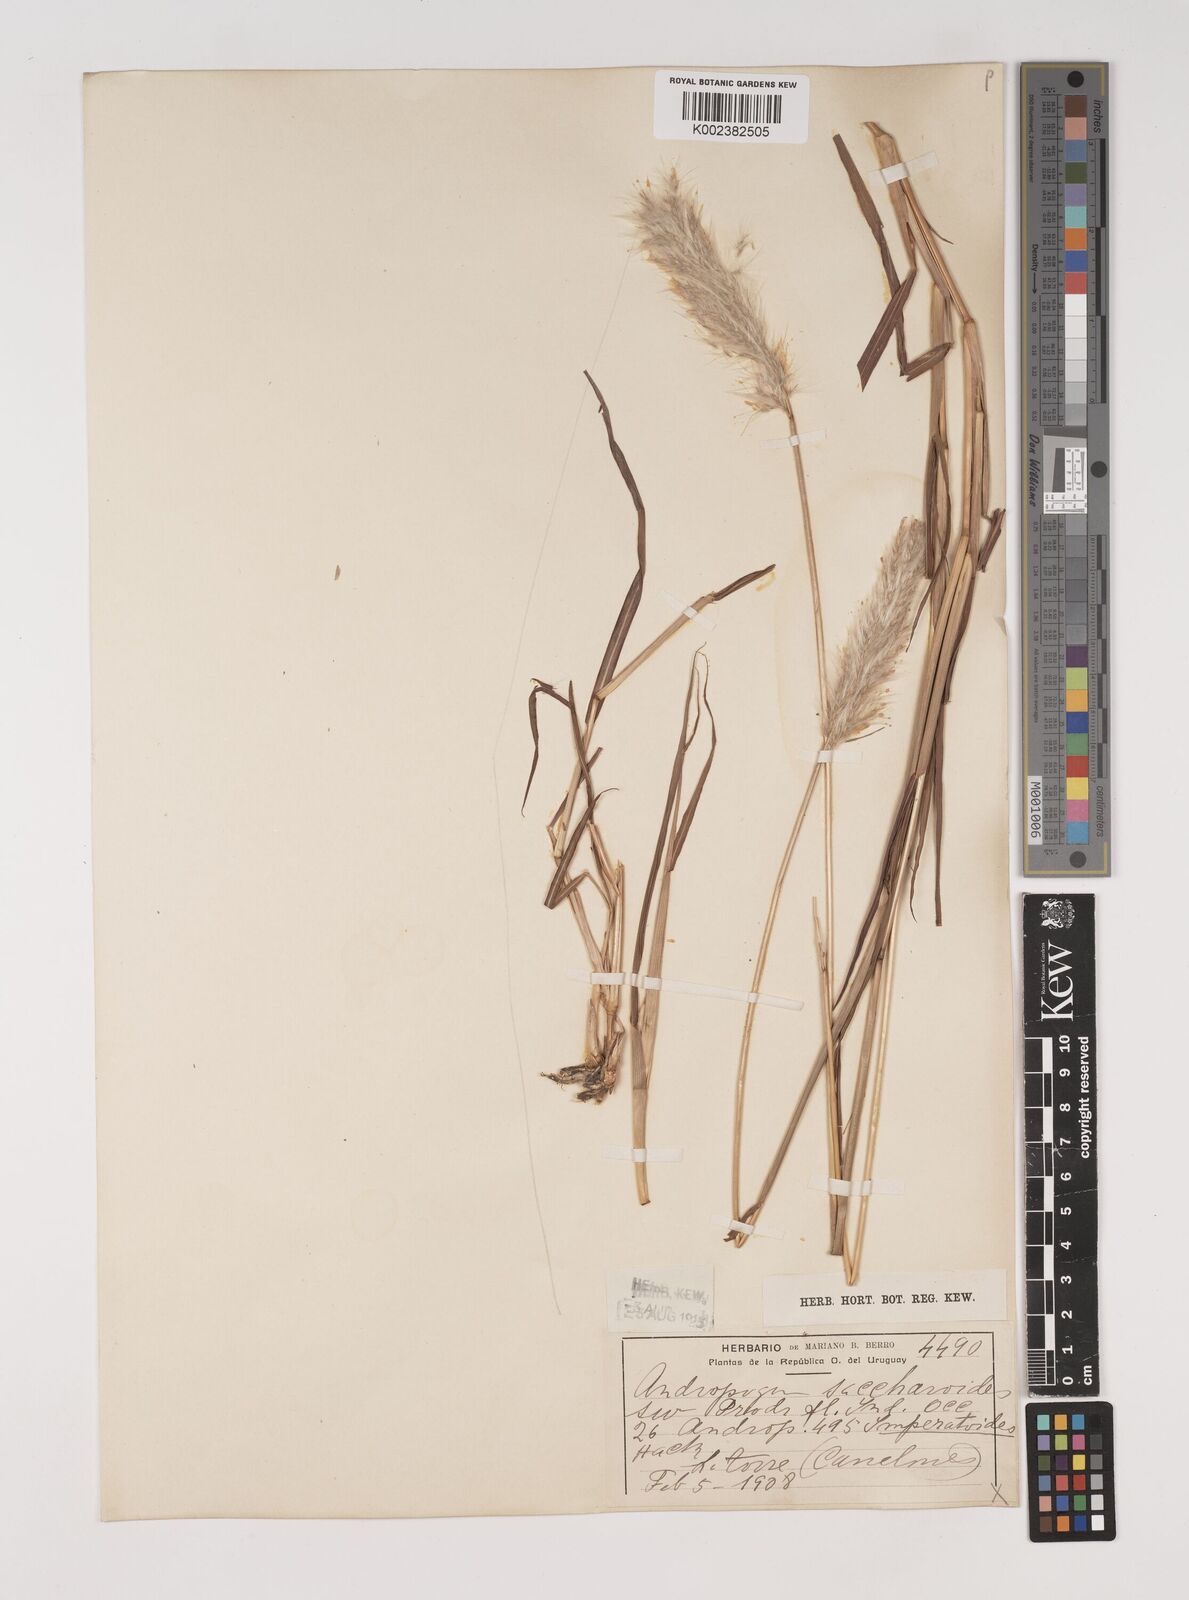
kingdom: Plantae
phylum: Tracheophyta
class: Liliopsida
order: Poales
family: Poaceae
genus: Bothriochloa
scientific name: Bothriochloa laguroides
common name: Silver bluestem
